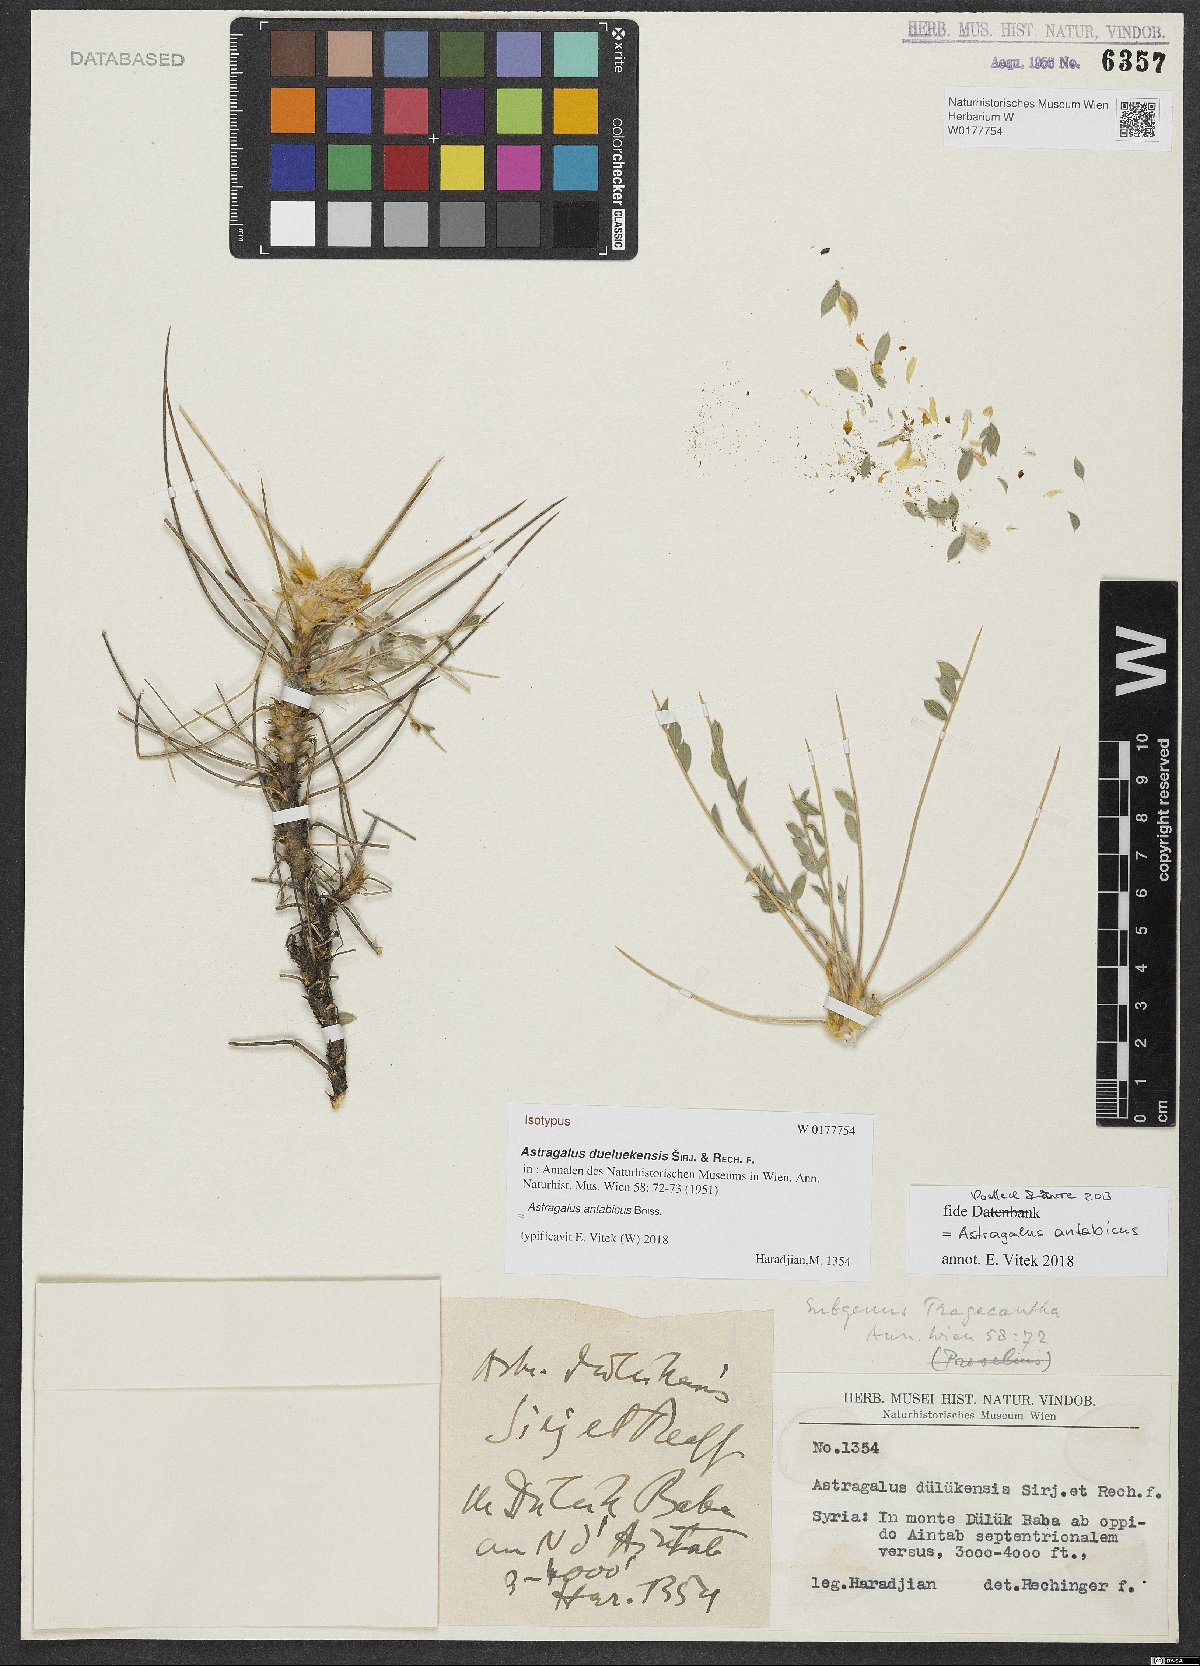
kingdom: Plantae
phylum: Tracheophyta
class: Magnoliopsida
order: Fabales
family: Fabaceae
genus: Astragalus
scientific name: Astragalus antabicus
